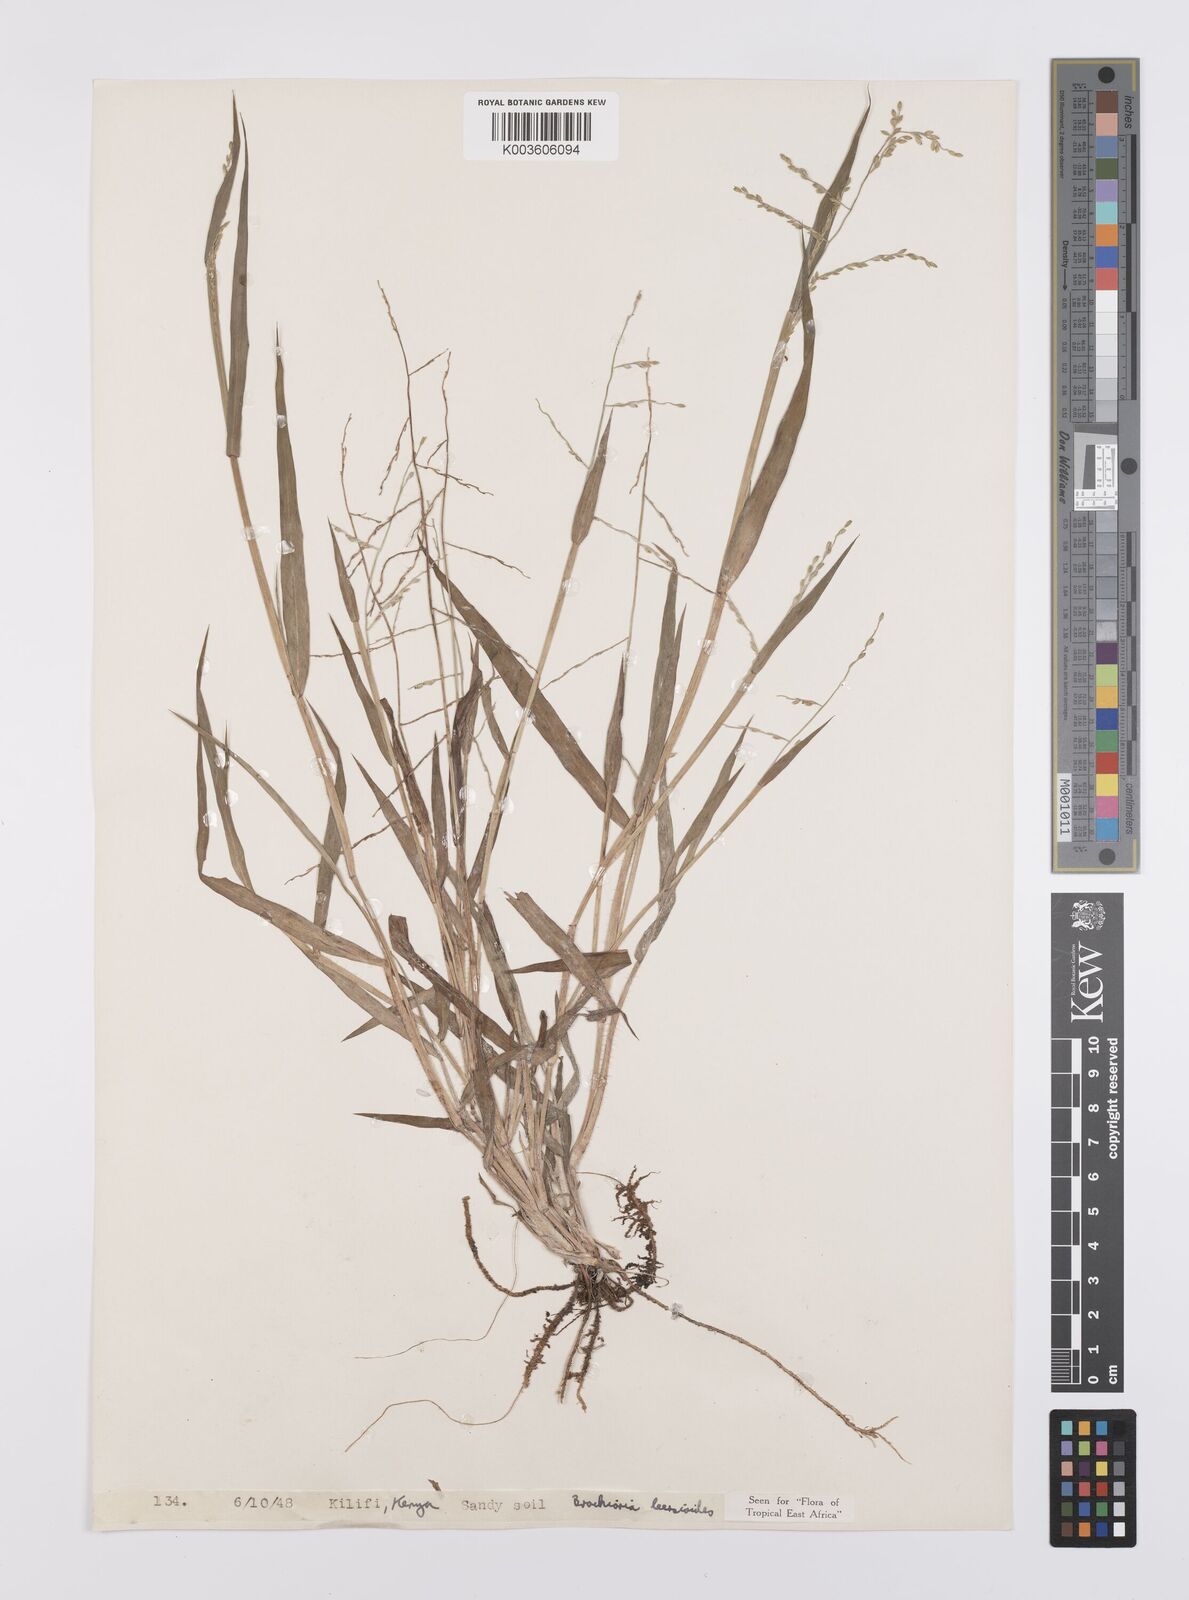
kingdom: Plantae
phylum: Tracheophyta
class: Liliopsida
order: Poales
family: Poaceae
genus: Urochloa
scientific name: Urochloa leersioides
